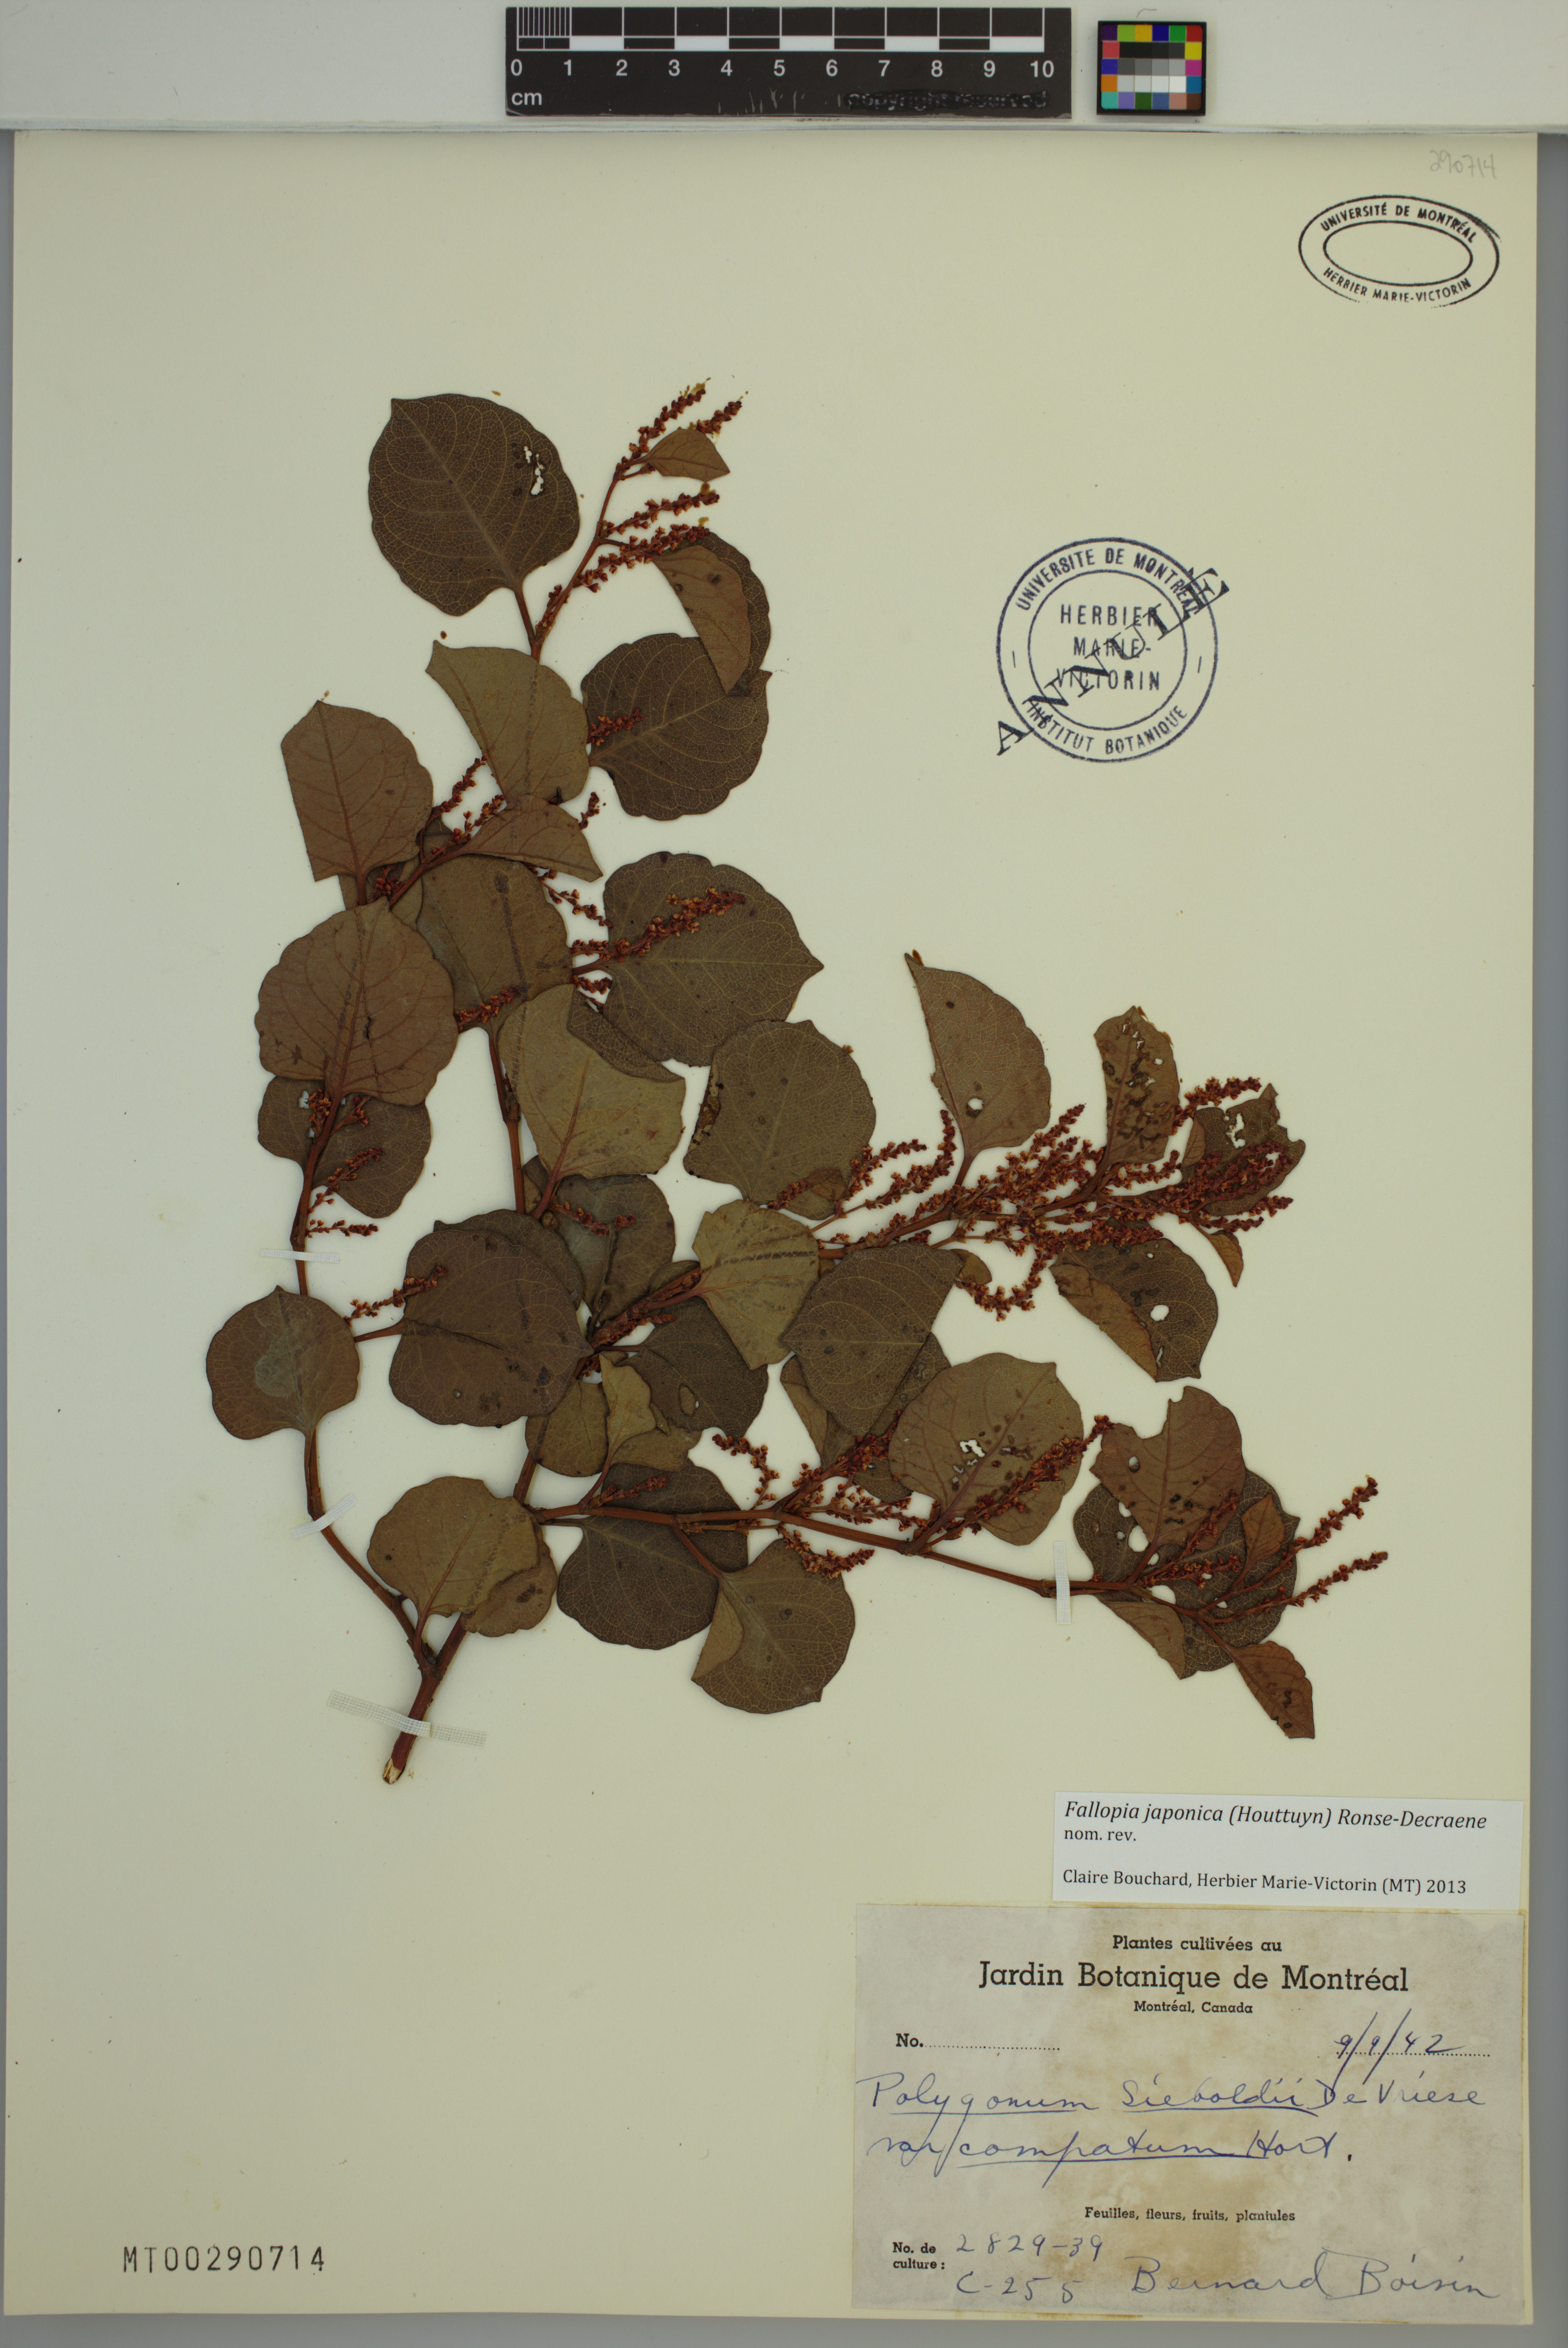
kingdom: Plantae
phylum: Tracheophyta
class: Magnoliopsida
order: Caryophyllales
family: Polygonaceae
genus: Reynoutria
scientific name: Reynoutria japonica
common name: Japanese knotweed
